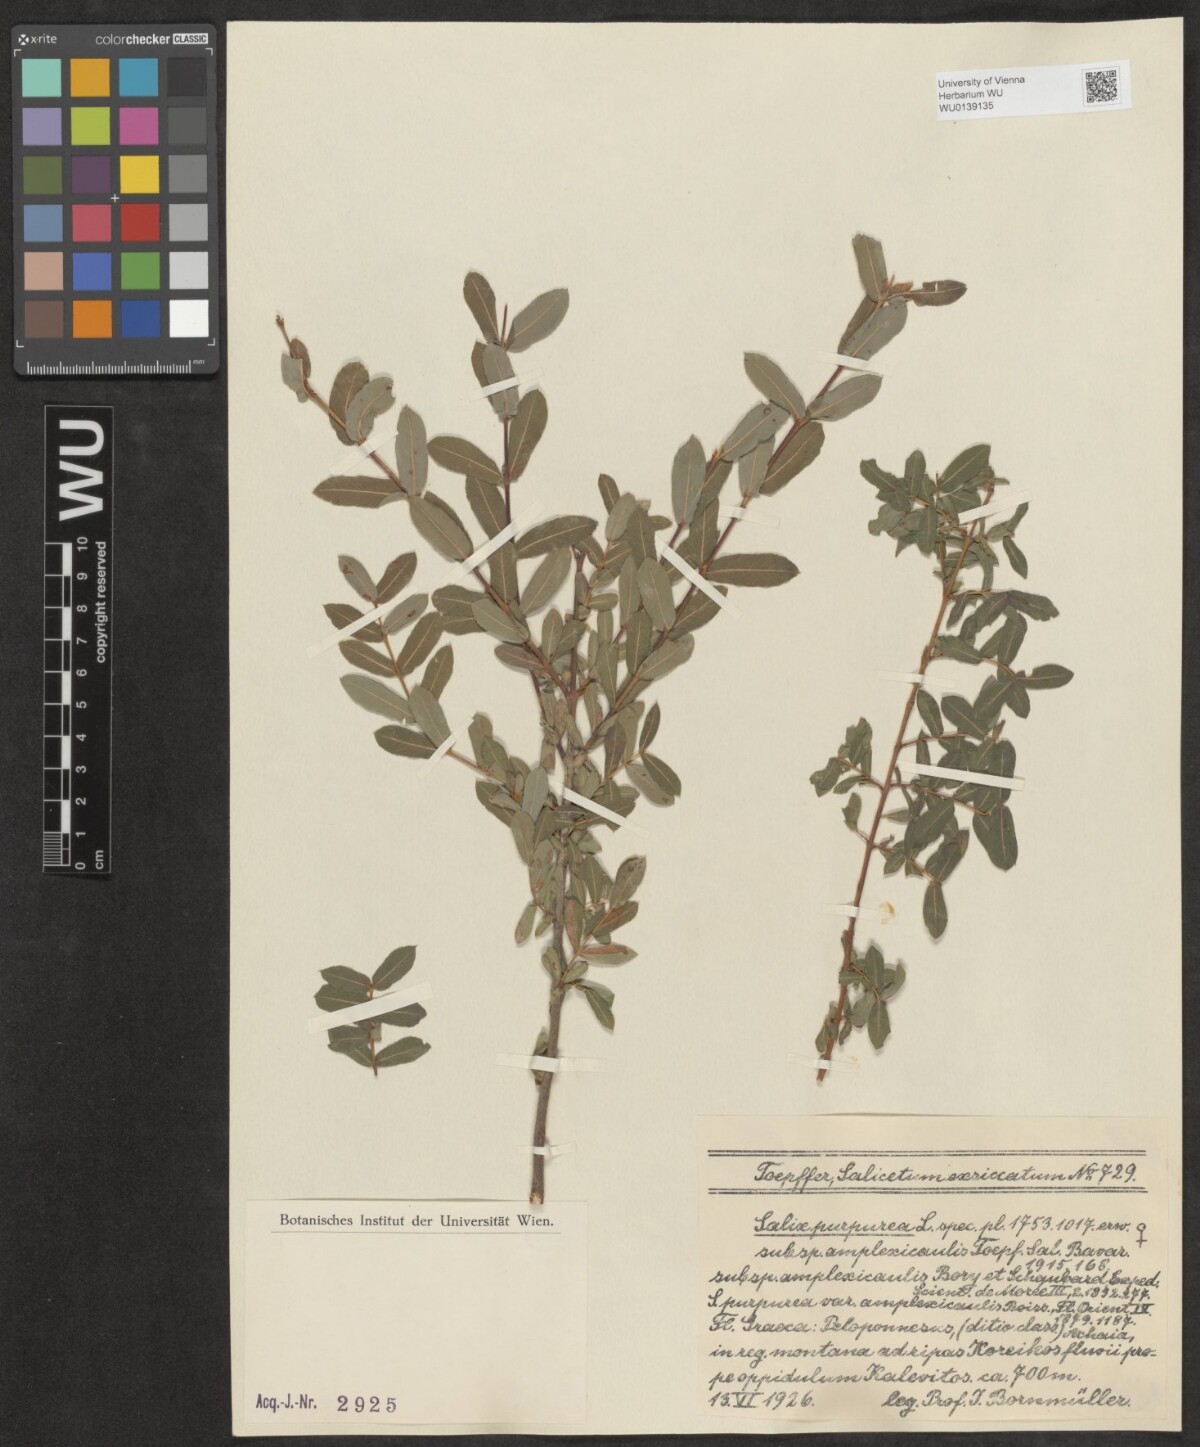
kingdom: Plantae
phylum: Tracheophyta
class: Magnoliopsida
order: Malpighiales
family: Salicaceae
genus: Salix
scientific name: Salix amplexicaulis
